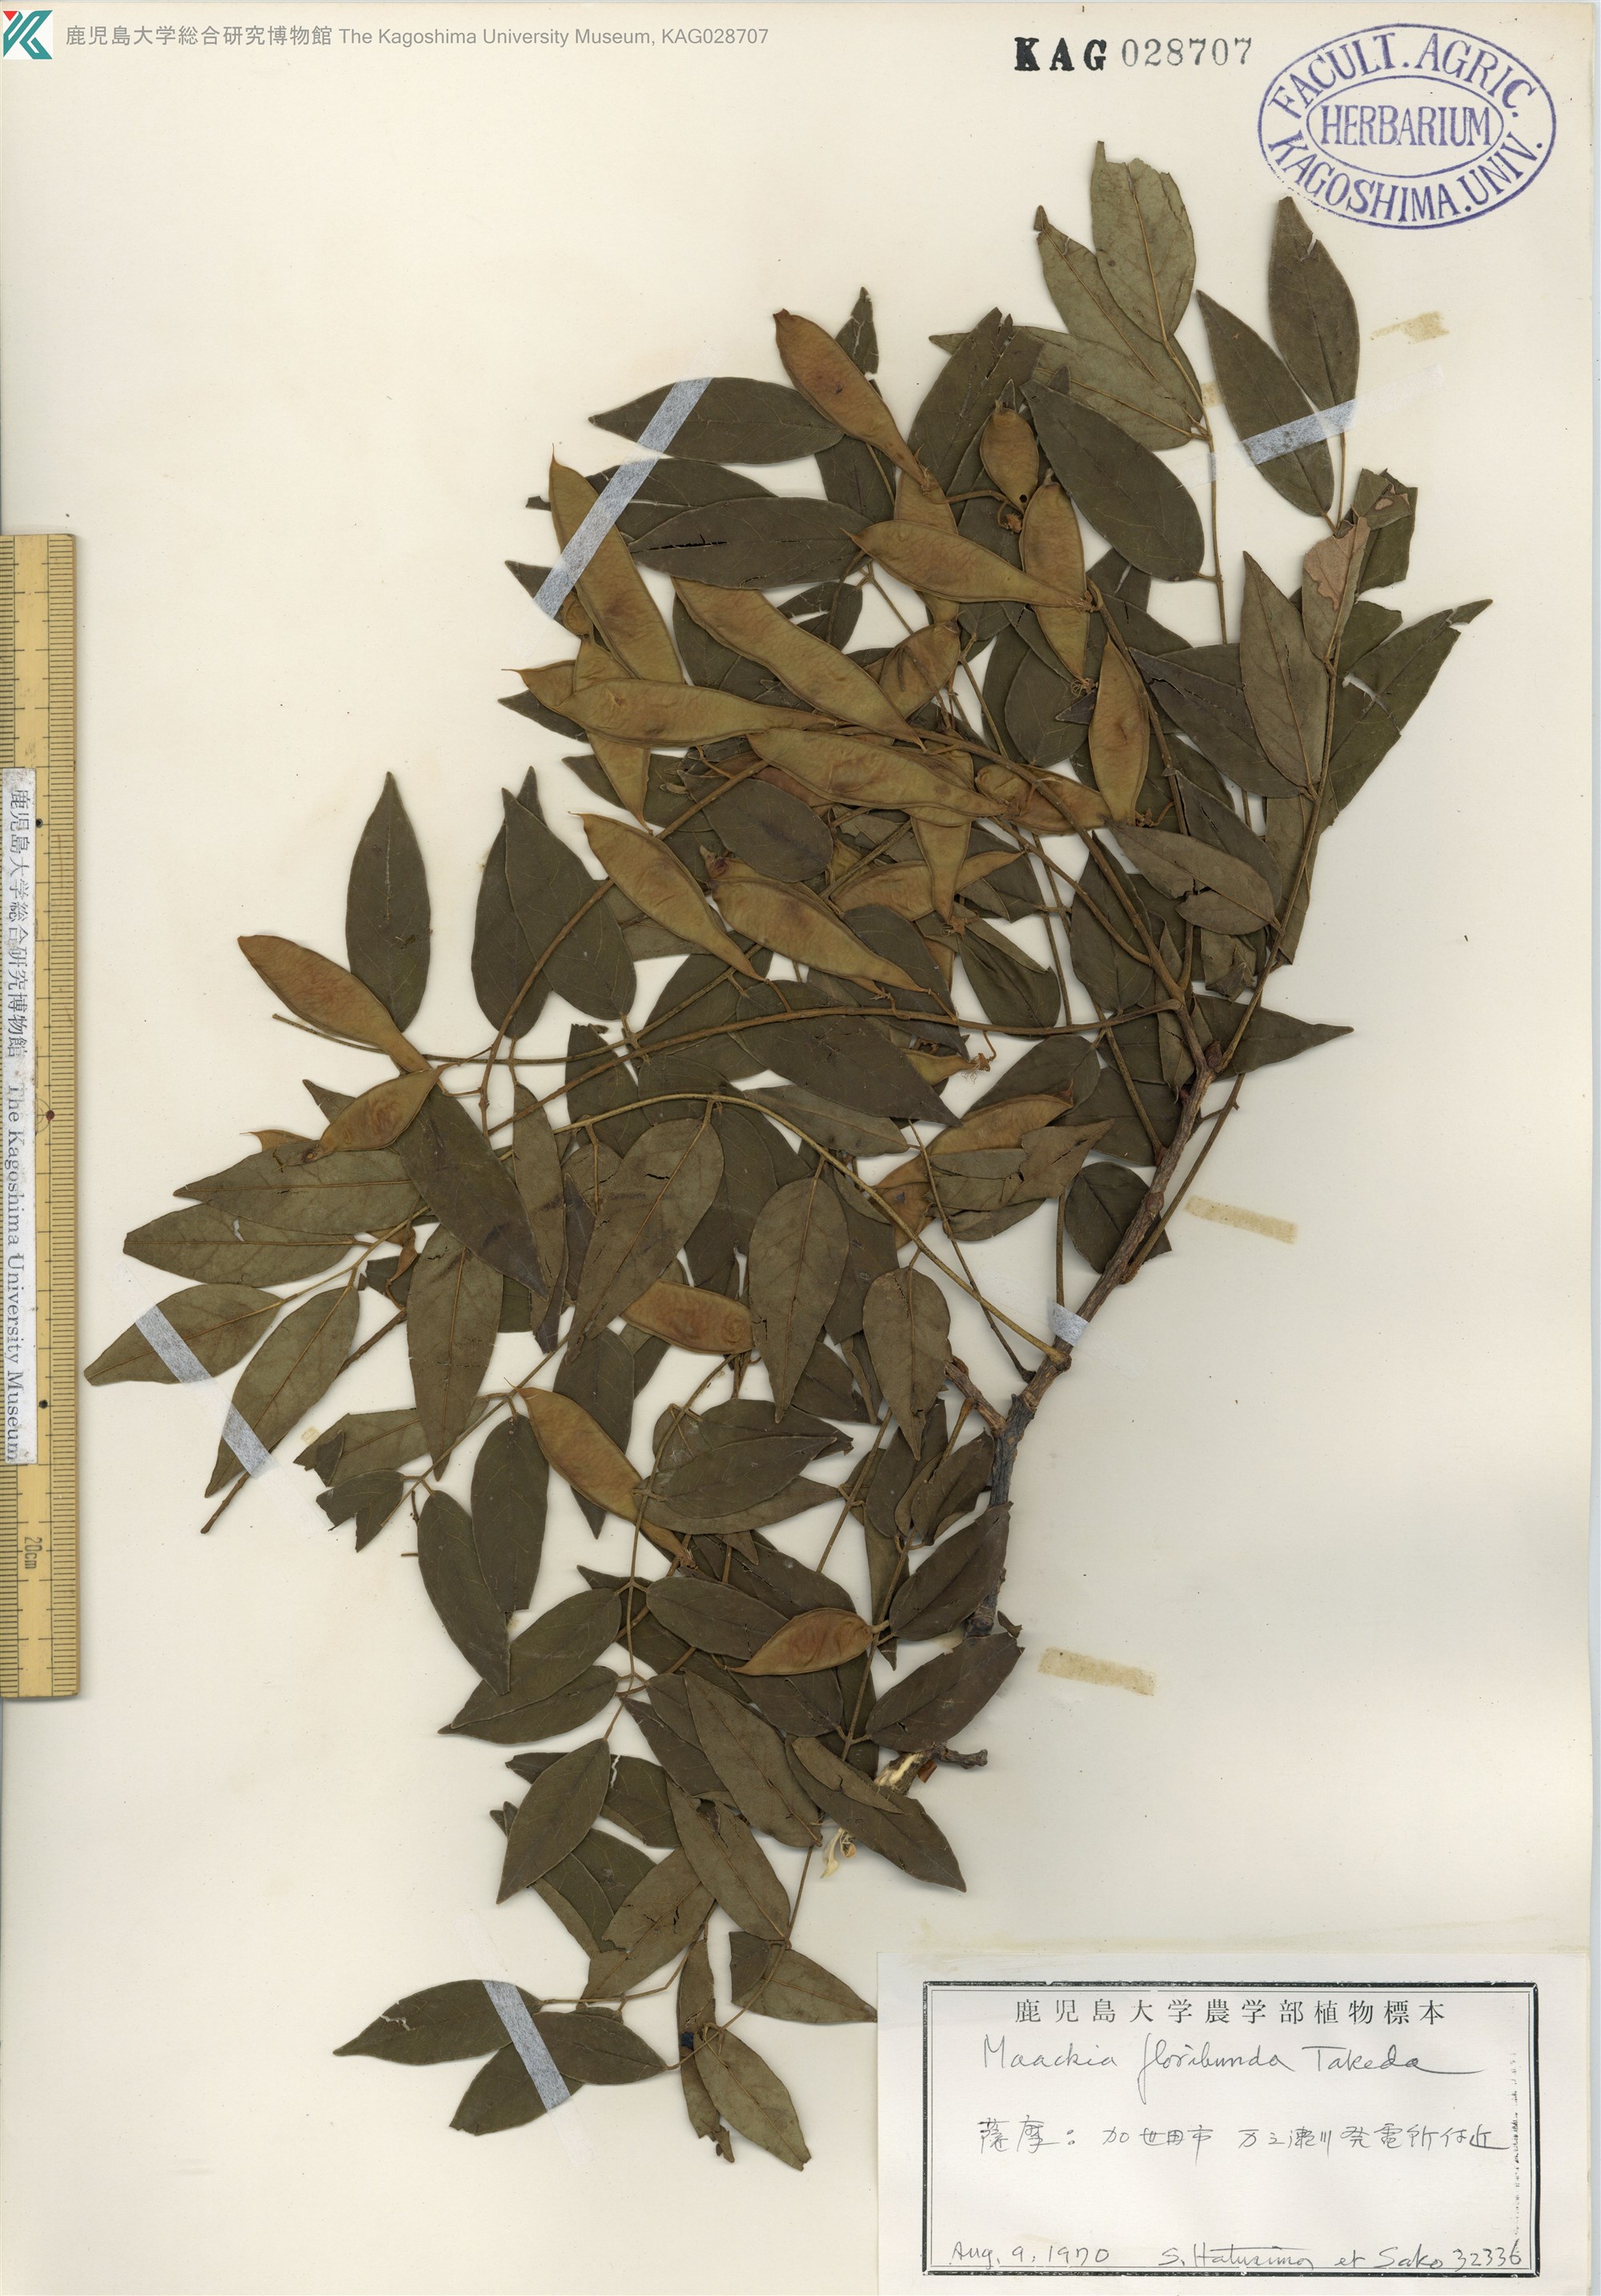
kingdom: Plantae
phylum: Tracheophyta
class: Magnoliopsida
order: Fabales
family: Fabaceae
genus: Maackia
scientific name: Maackia amurensis
